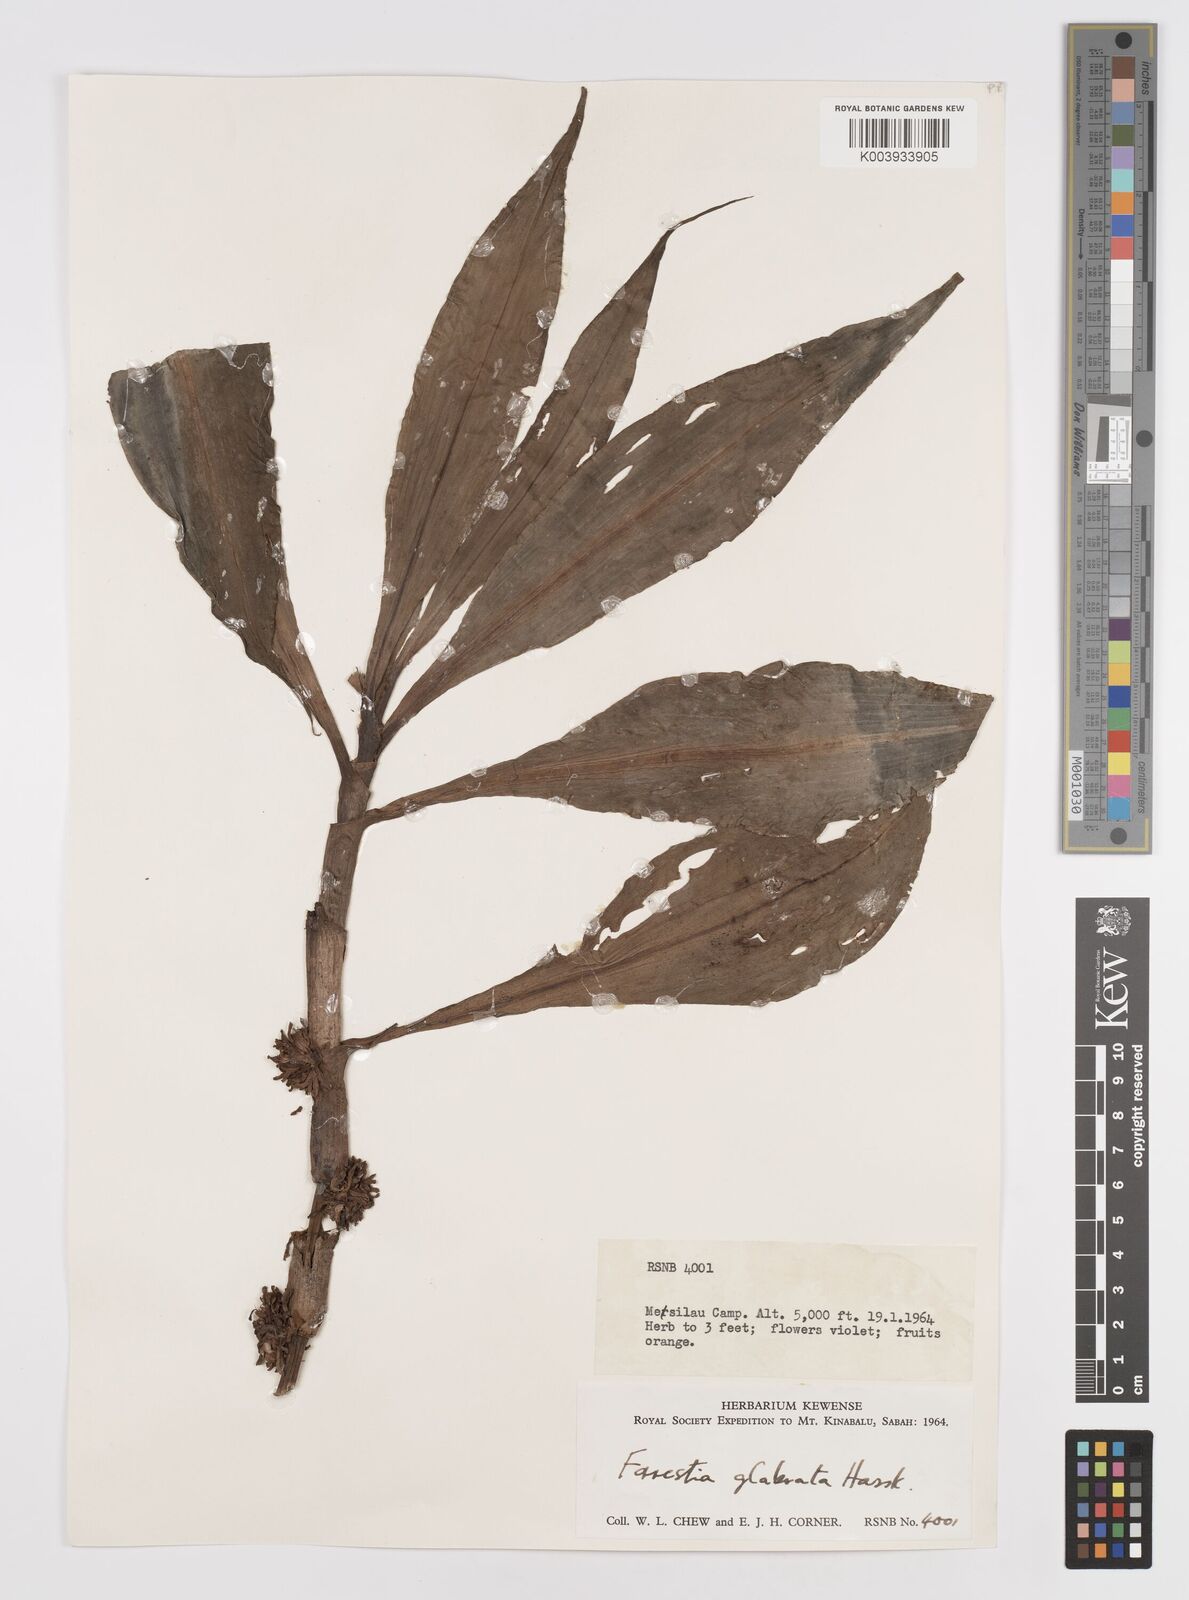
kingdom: Plantae
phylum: Tracheophyta
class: Liliopsida
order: Commelinales
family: Commelinaceae
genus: Amischotolype
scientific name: Amischotolype glabrata
